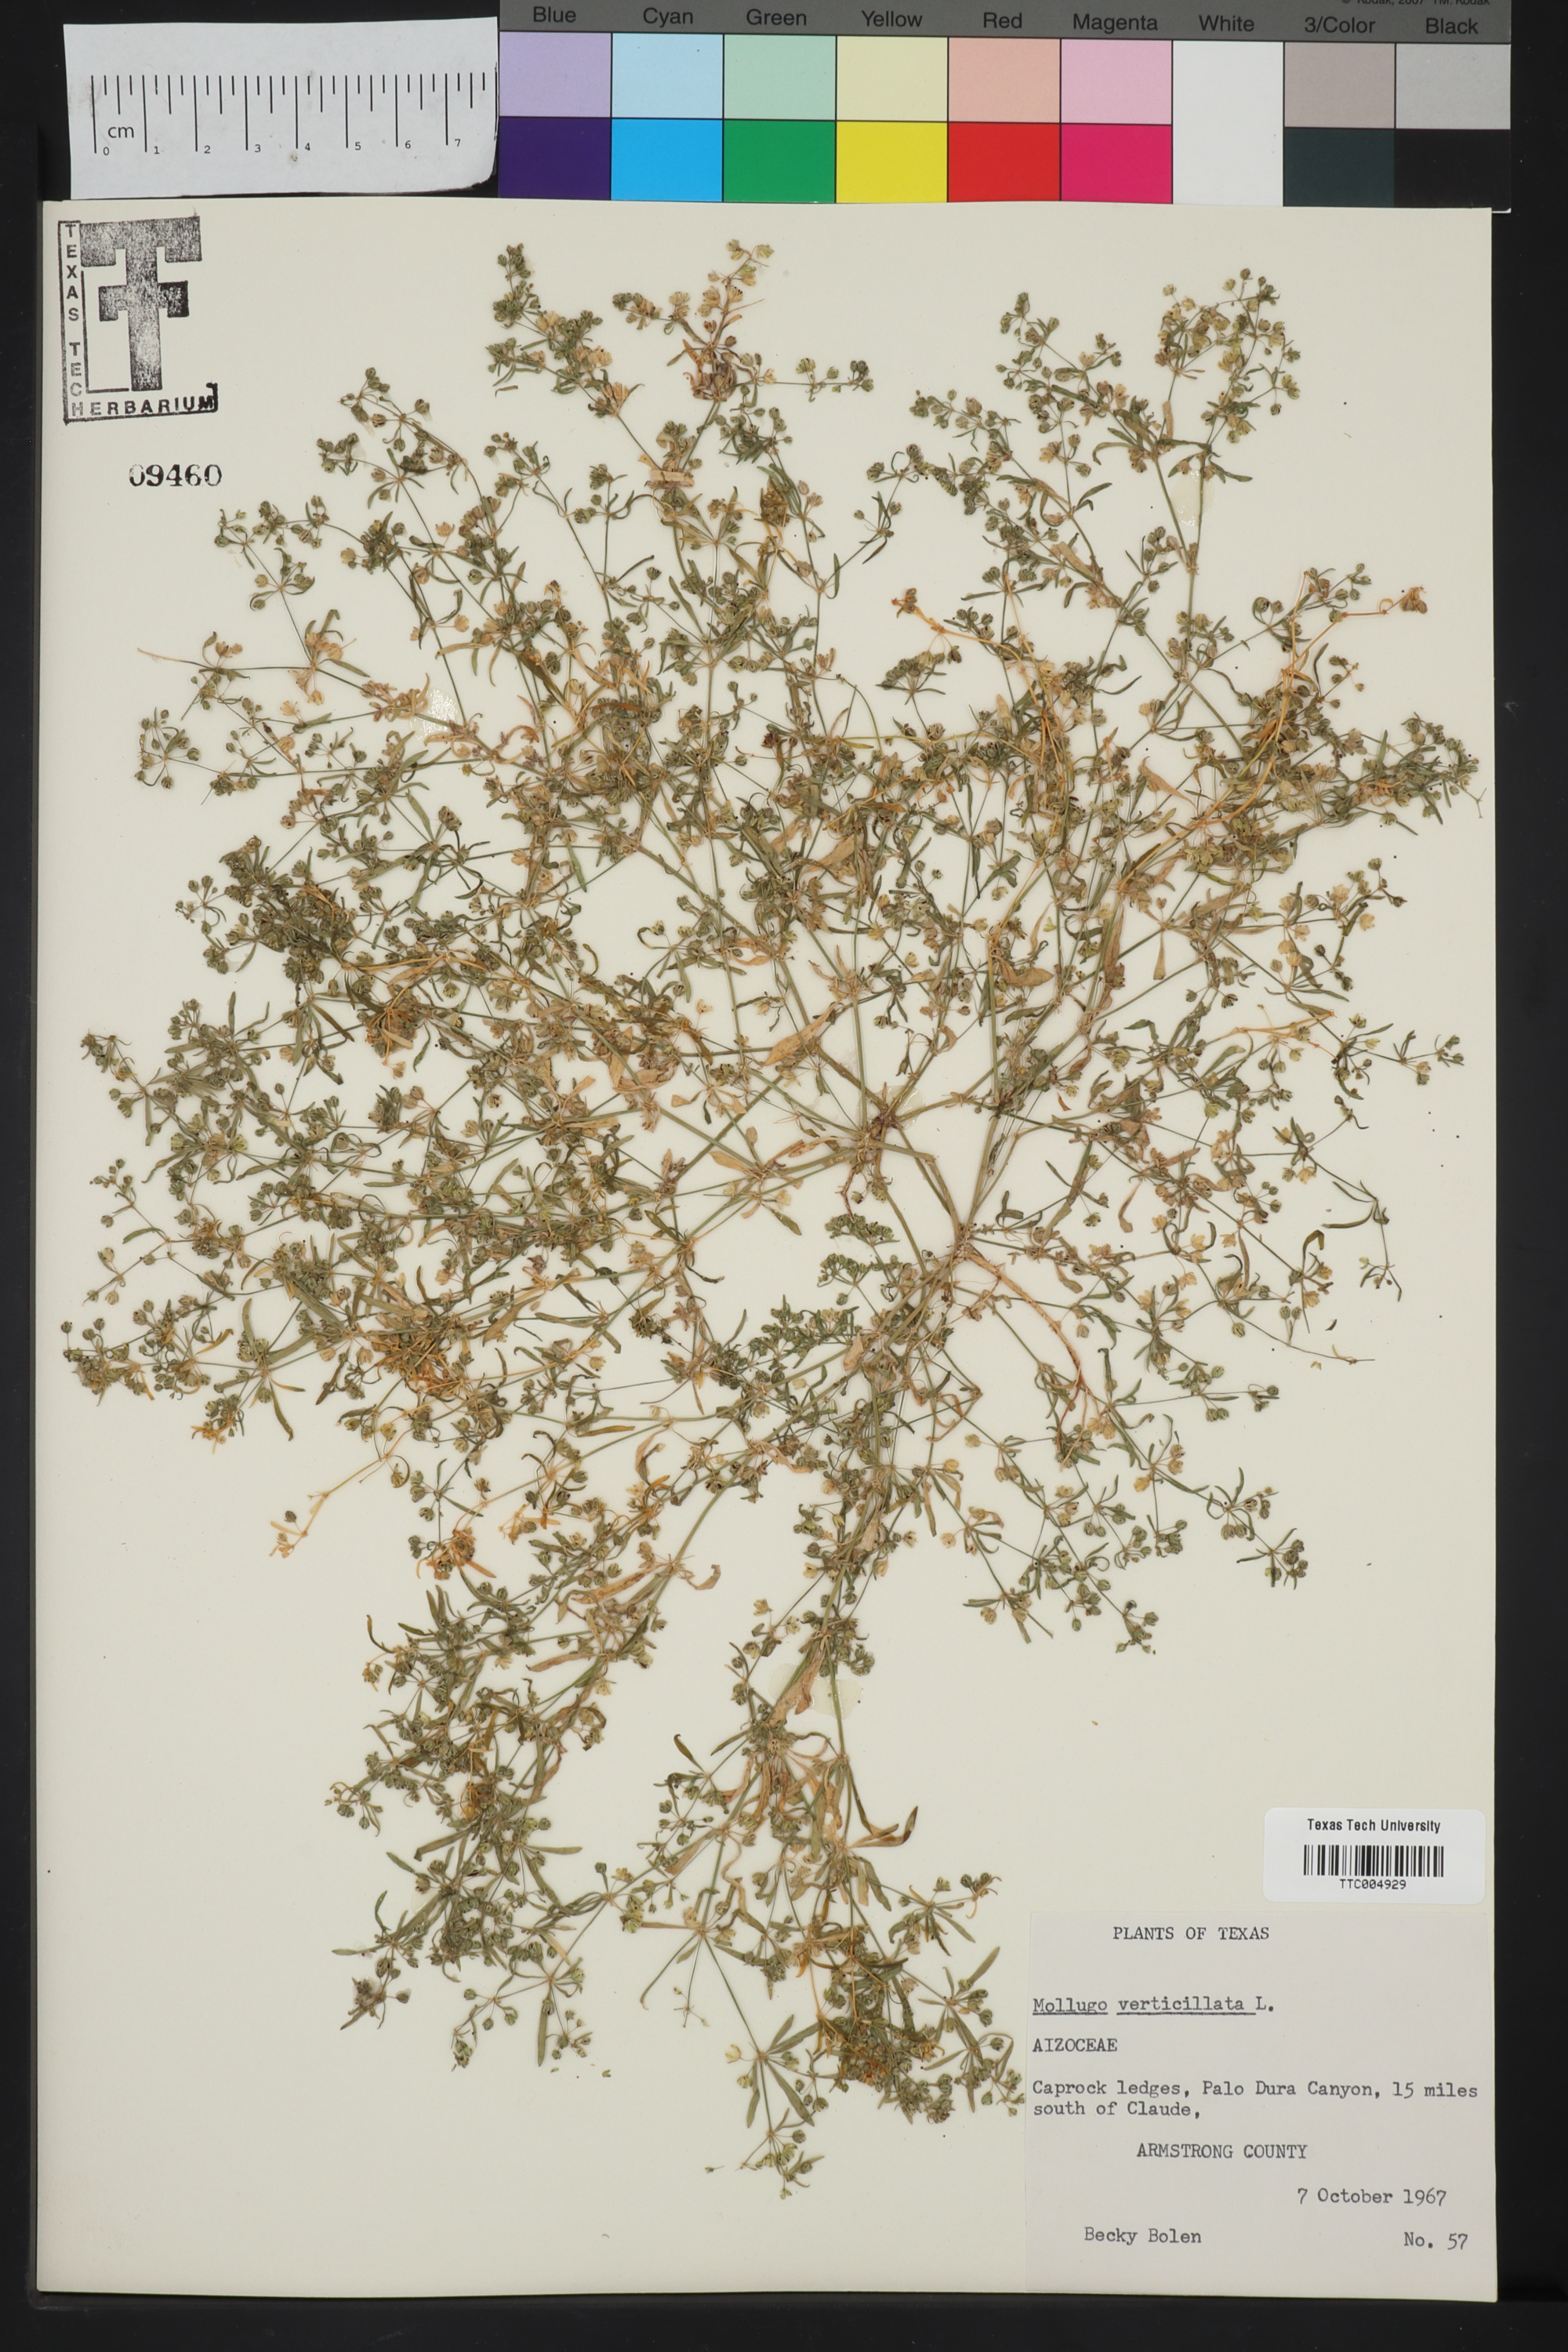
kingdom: Plantae
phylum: Tracheophyta
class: Magnoliopsida
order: Caryophyllales
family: Molluginaceae
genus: Mollugo
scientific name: Mollugo verticillata
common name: Green carpetweed
